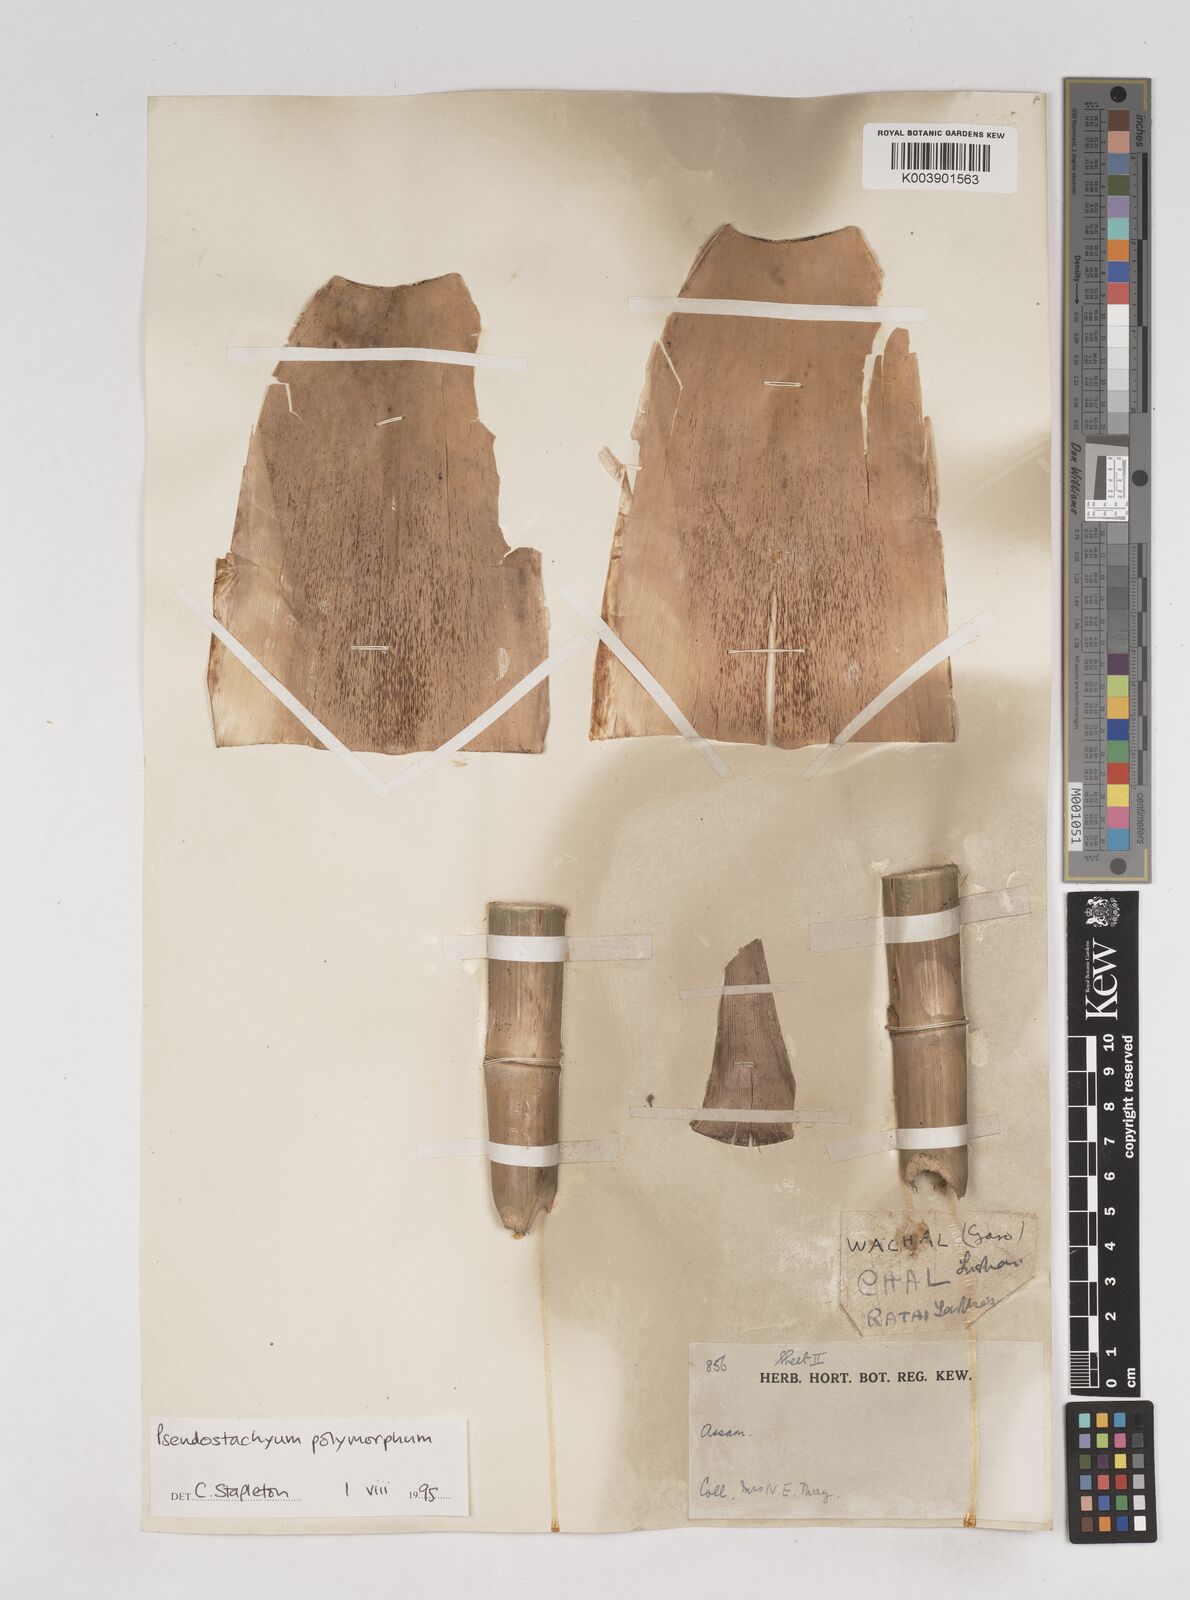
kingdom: Plantae
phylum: Tracheophyta
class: Liliopsida
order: Poales
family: Poaceae
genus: Pseudostachyum
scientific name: Pseudostachyum polymorphum
